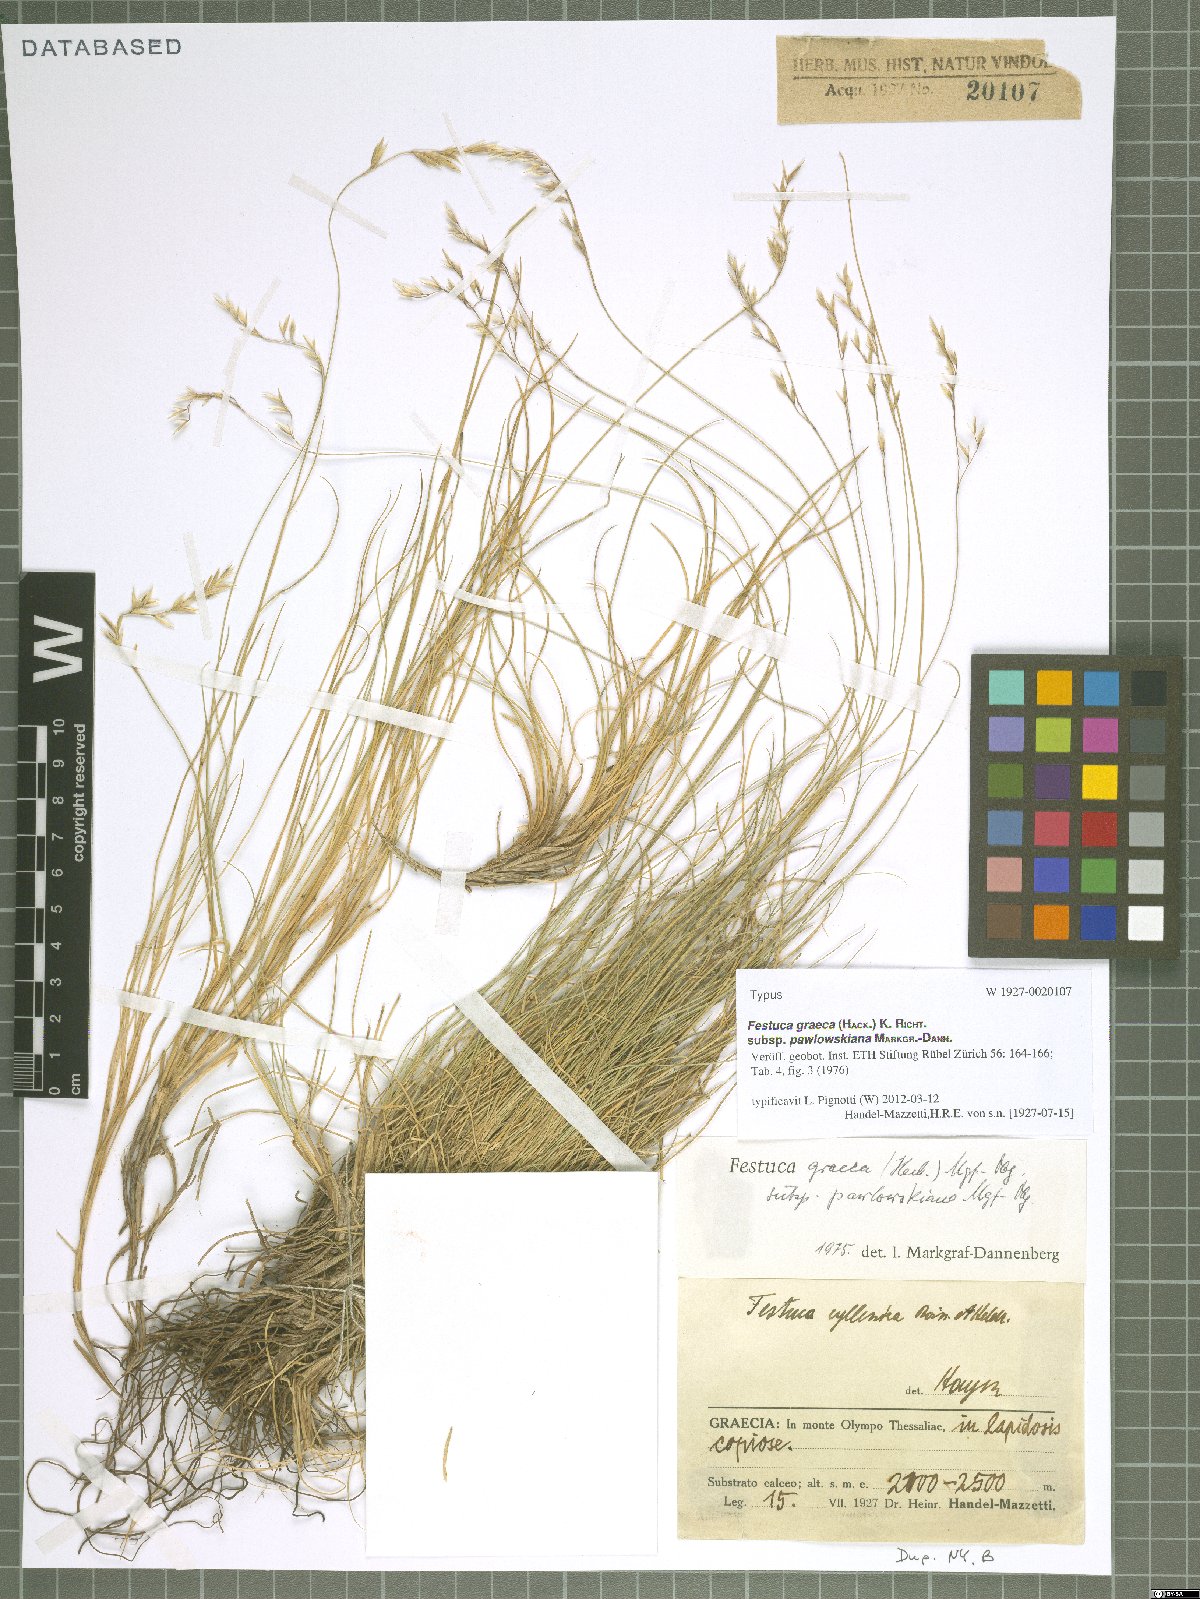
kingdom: Plantae
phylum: Tracheophyta
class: Liliopsida
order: Poales
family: Poaceae
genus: Festuca
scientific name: Festuca graeca
